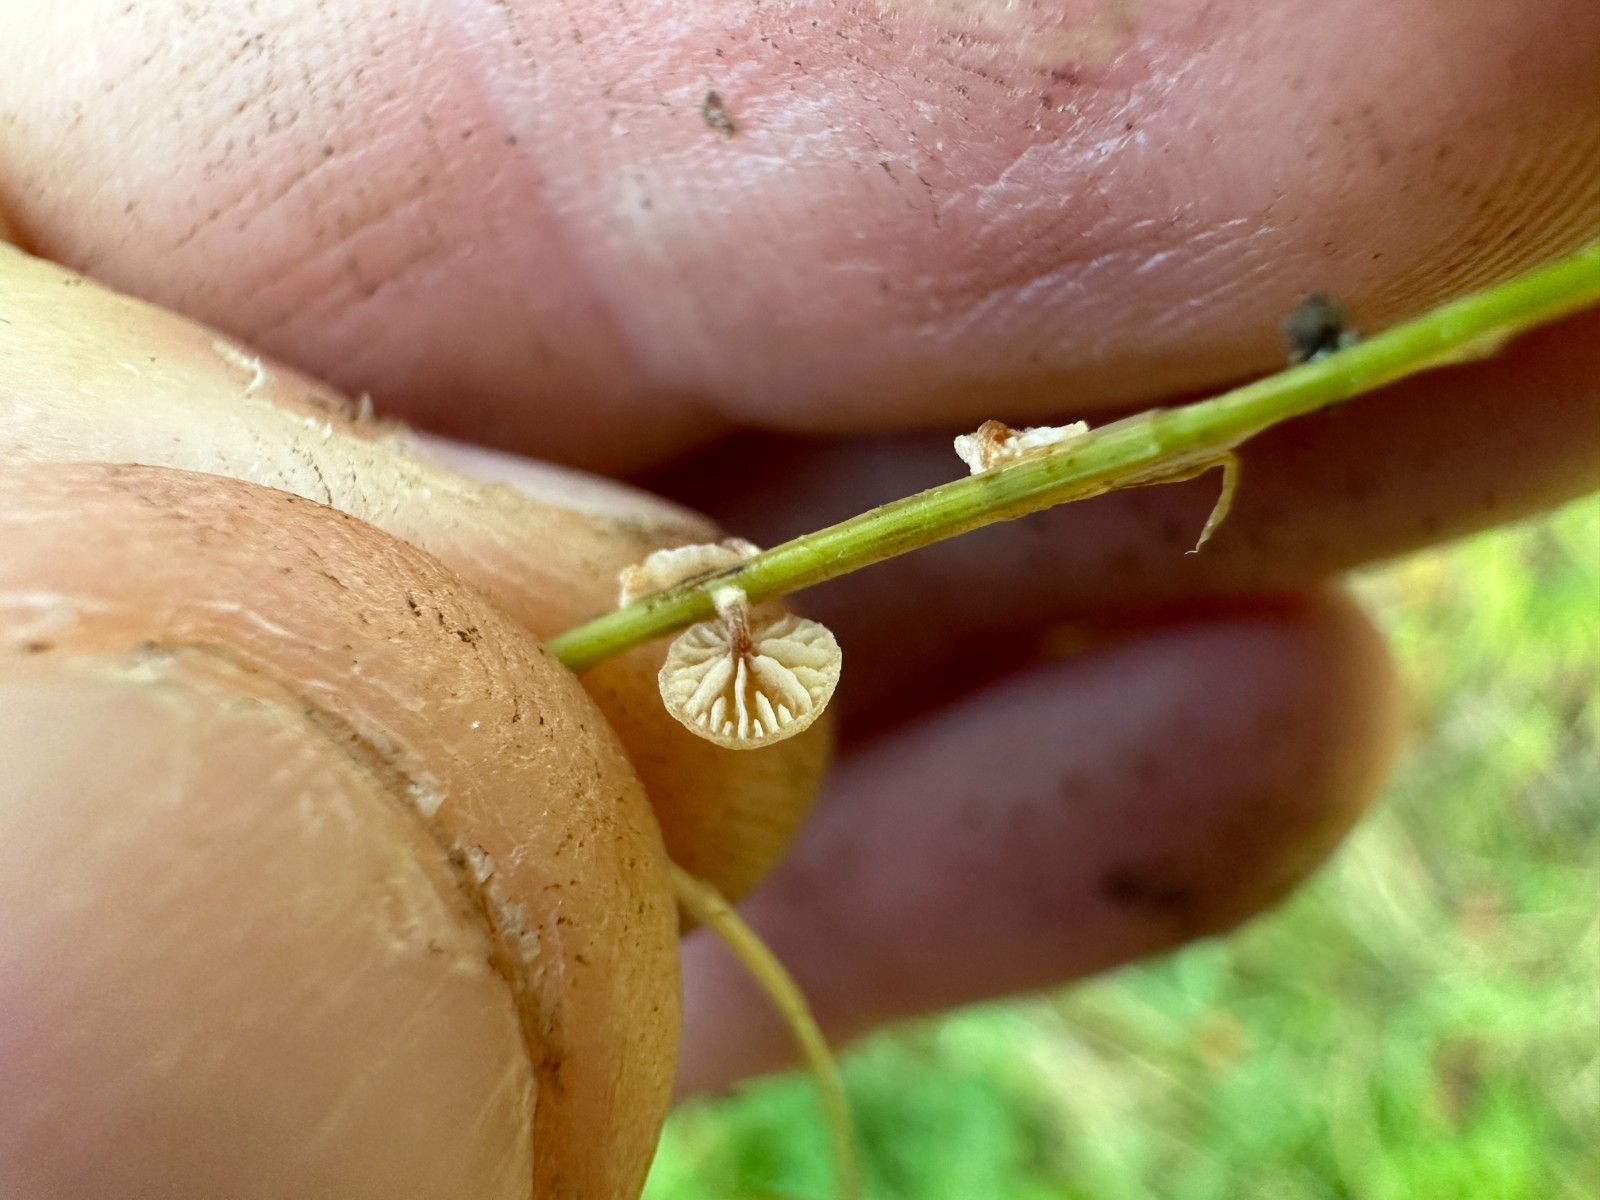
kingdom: Fungi
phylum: Basidiomycota
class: Agaricomycetes
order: Agaricales
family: Strophariaceae
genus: Deconica
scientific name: Deconica phillipsii
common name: almindelig stråhat
